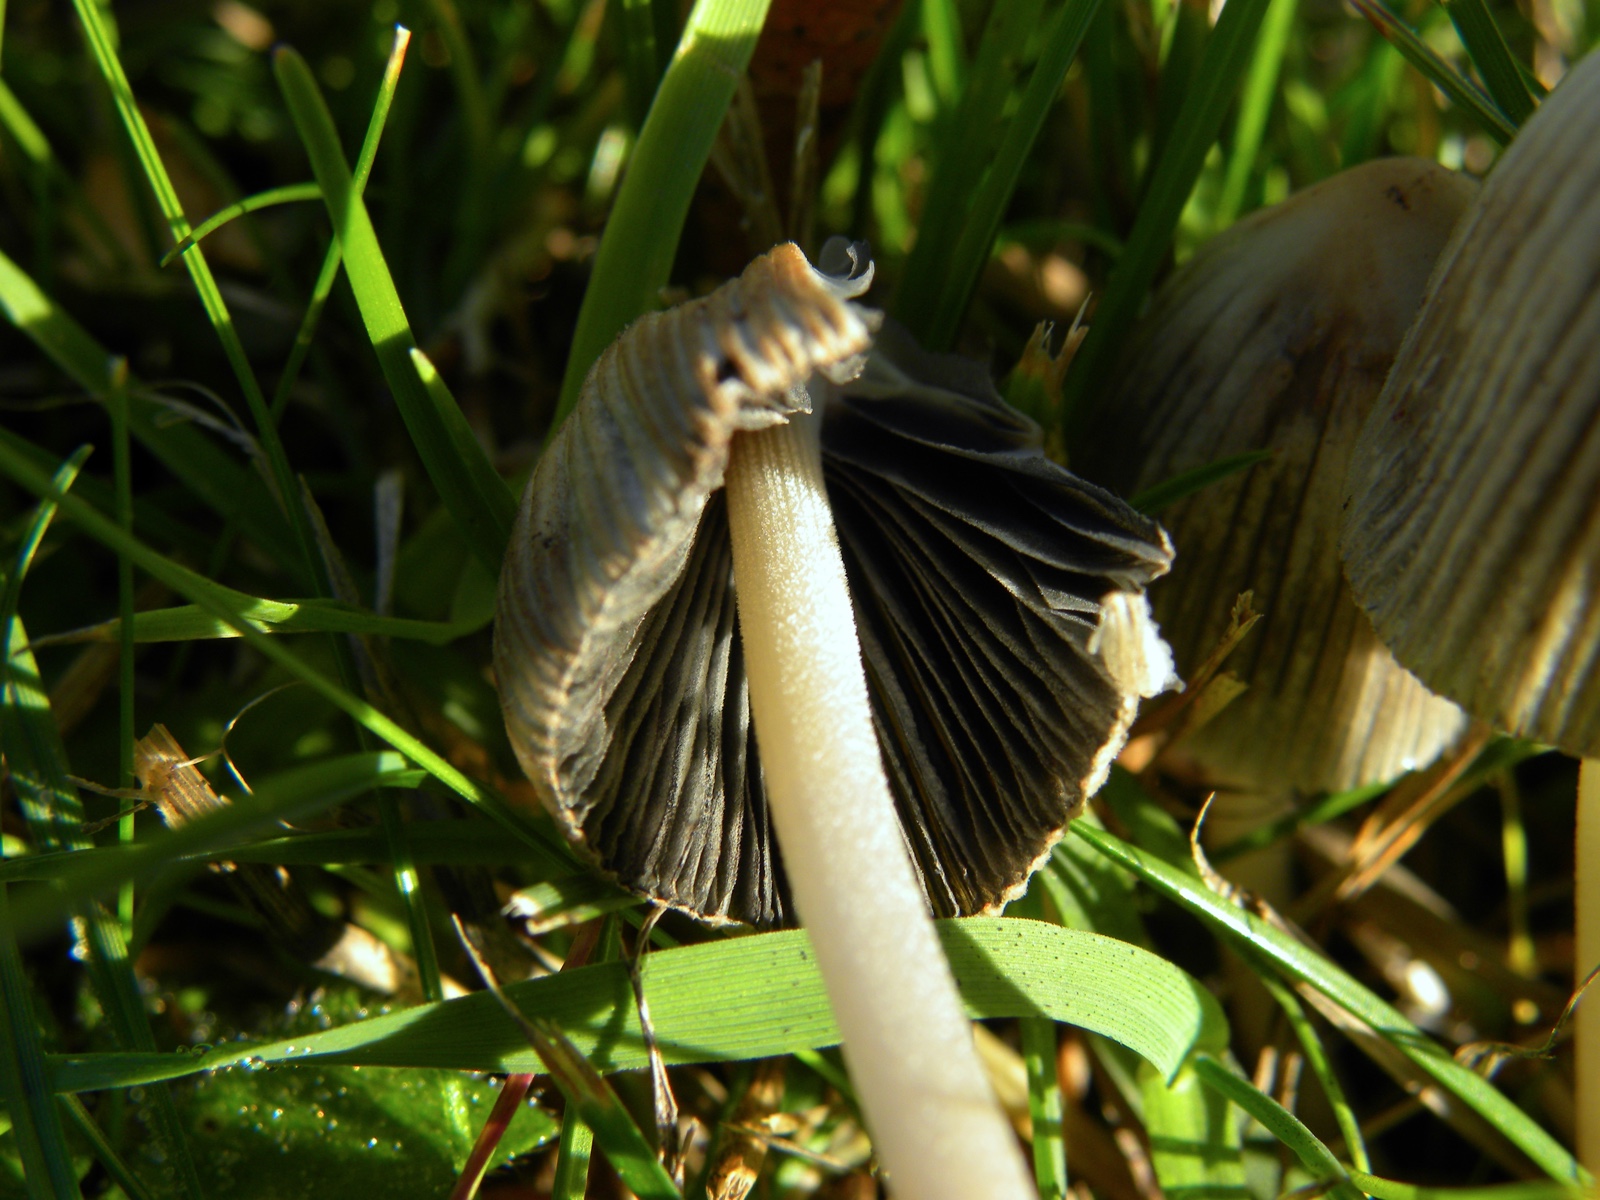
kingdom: Fungi
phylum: Basidiomycota
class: Agaricomycetes
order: Agaricales
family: Psathyrellaceae
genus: Coprinellus
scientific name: Coprinellus
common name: blækhat
